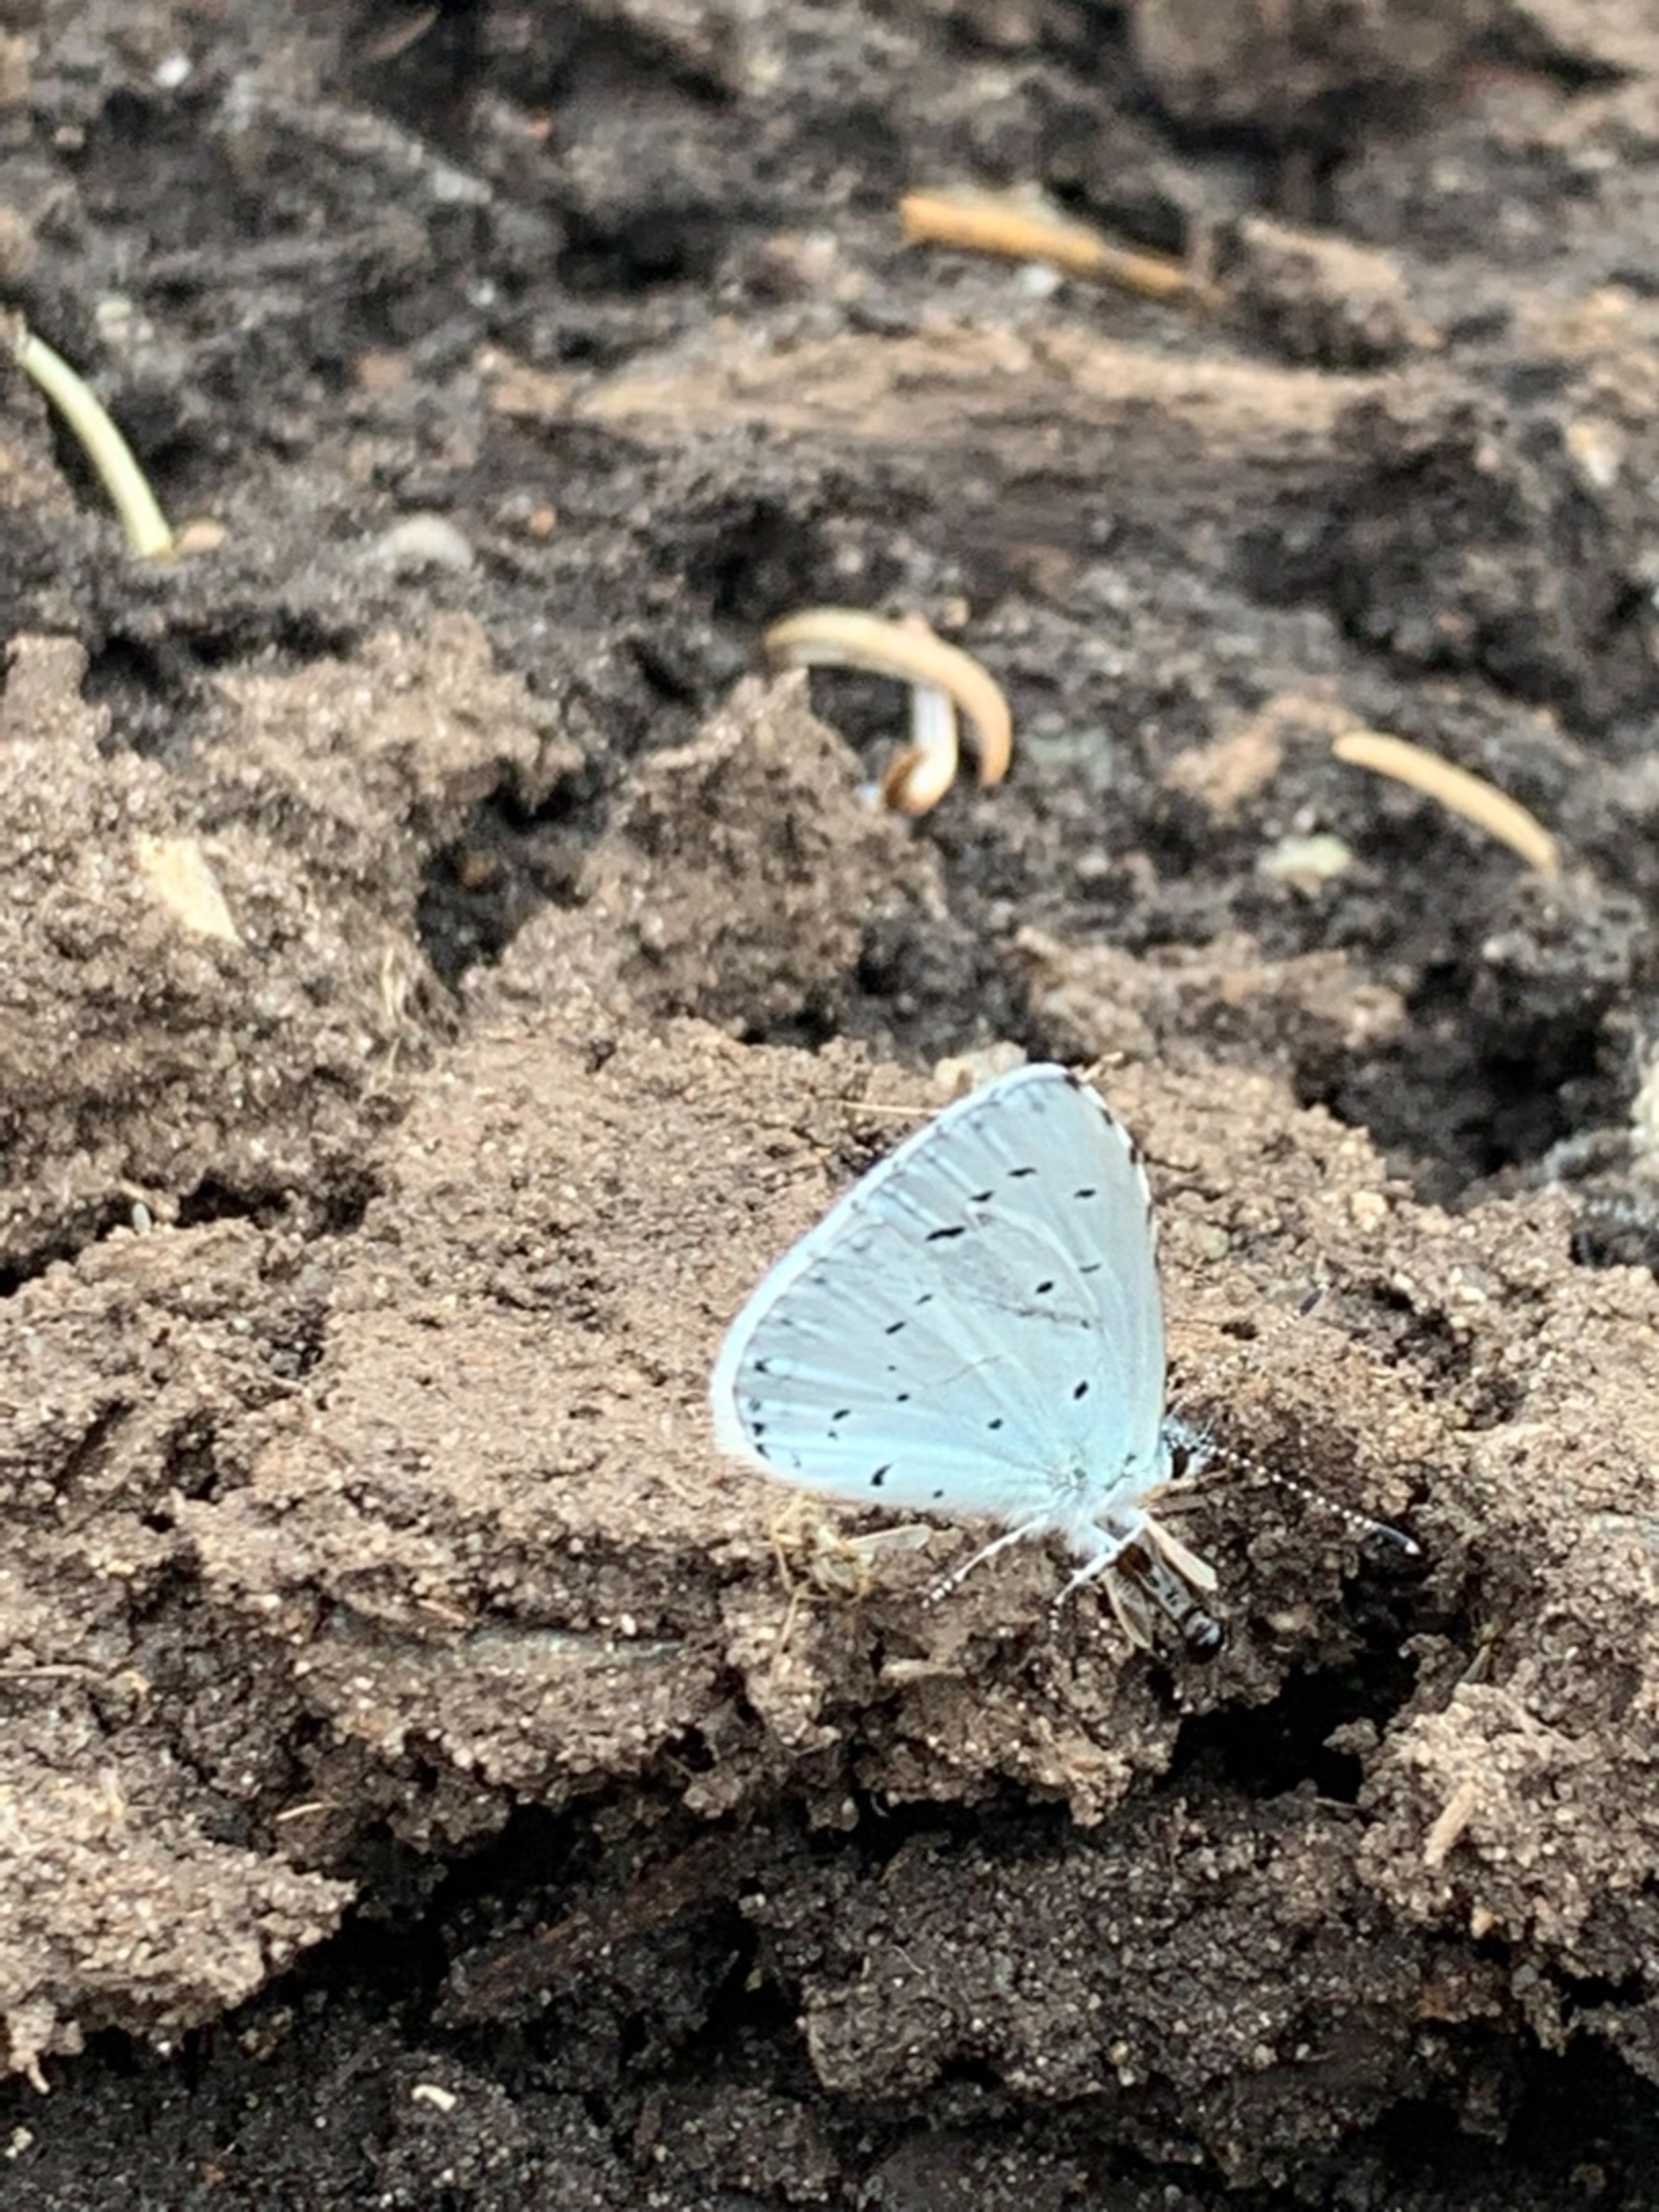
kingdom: Animalia
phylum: Arthropoda
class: Insecta
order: Lepidoptera
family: Lycaenidae
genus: Celastrina
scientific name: Celastrina argiolus
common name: Skovblåfugl
